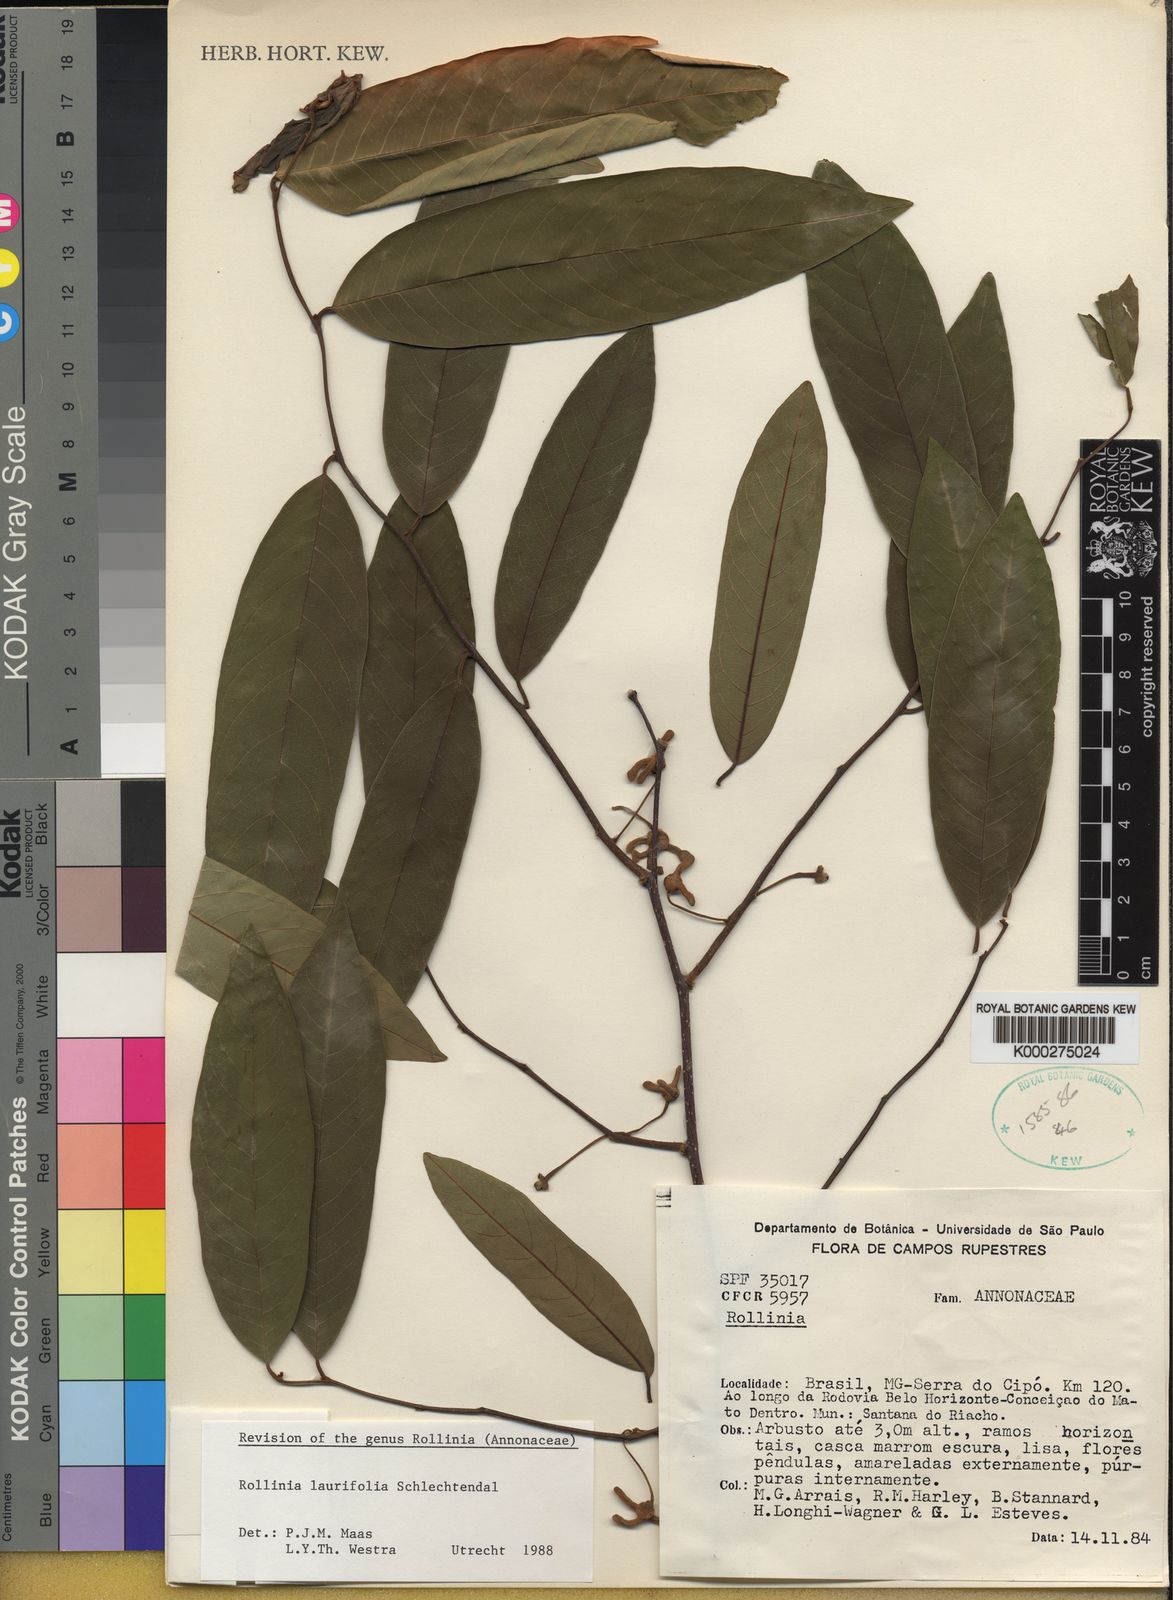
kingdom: Plantae
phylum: Tracheophyta
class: Magnoliopsida
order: Magnoliales
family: Annonaceae
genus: Annona
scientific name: Annona neolaurifolia
